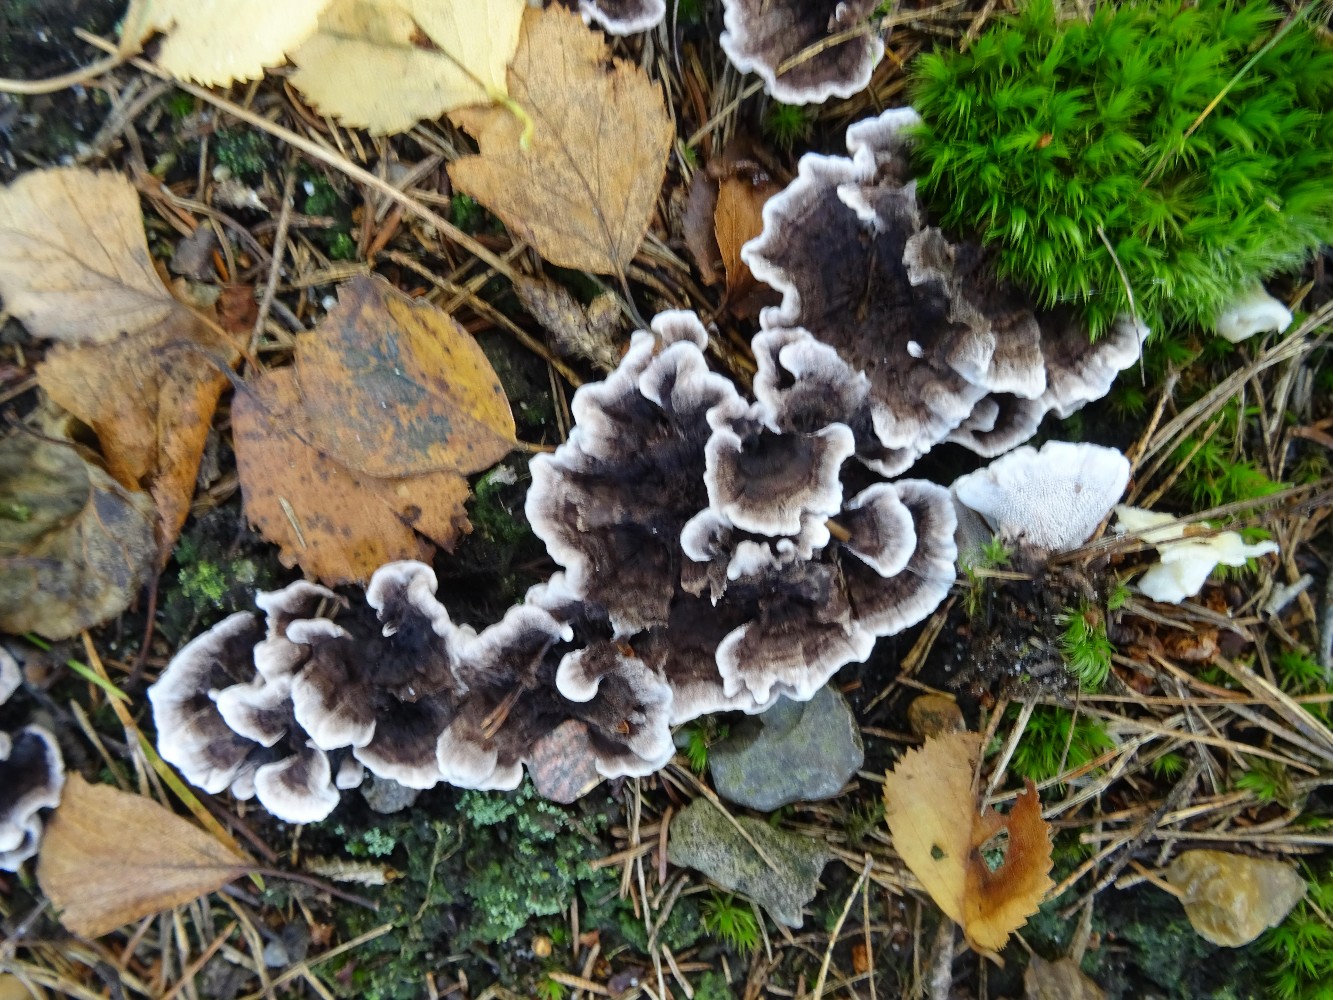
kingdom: Fungi
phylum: Basidiomycota
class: Agaricomycetes
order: Thelephorales
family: Thelephoraceae
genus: Phellodon
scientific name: Phellodon tomentosus
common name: vellugtende duftpigsvamp
